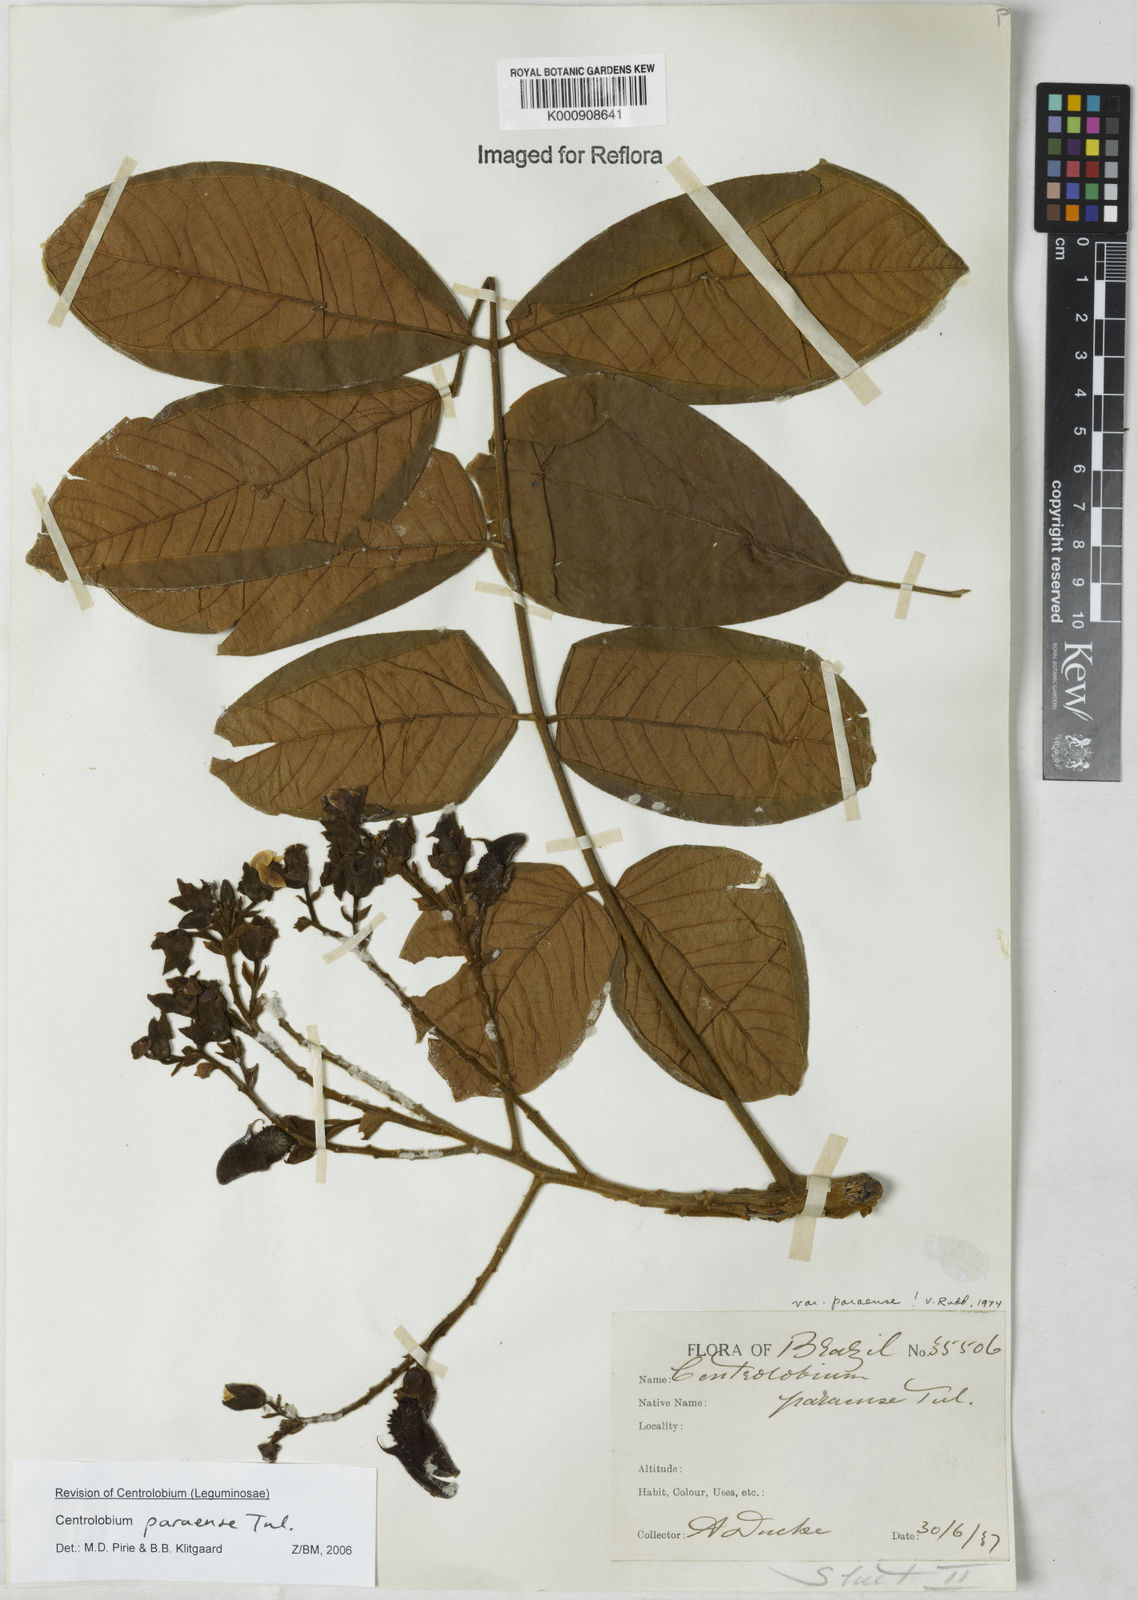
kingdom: Plantae
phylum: Tracheophyta
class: Magnoliopsida
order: Fabales
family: Fabaceae
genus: Centrolobium
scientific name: Centrolobium paraense
